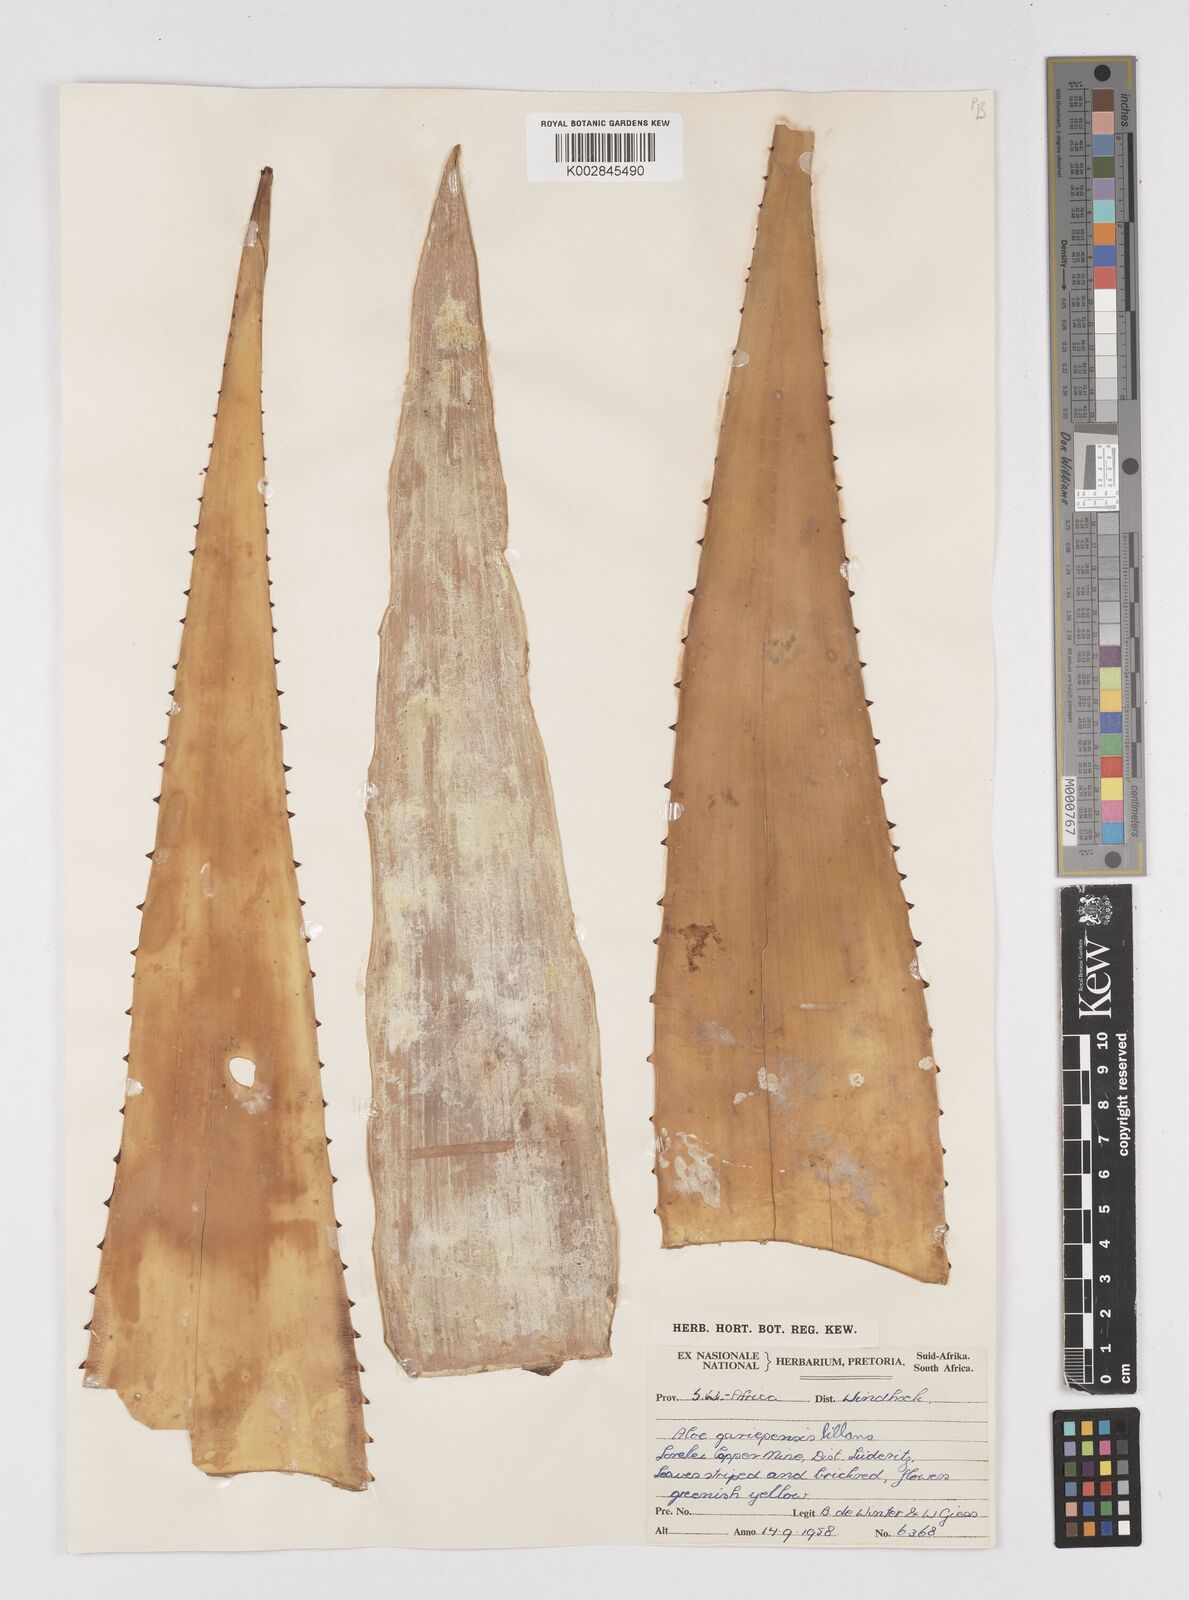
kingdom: Plantae
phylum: Tracheophyta
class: Liliopsida
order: Asparagales
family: Asphodelaceae
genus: Aloe
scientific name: Aloe gariepensis
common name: Orange river aloe
